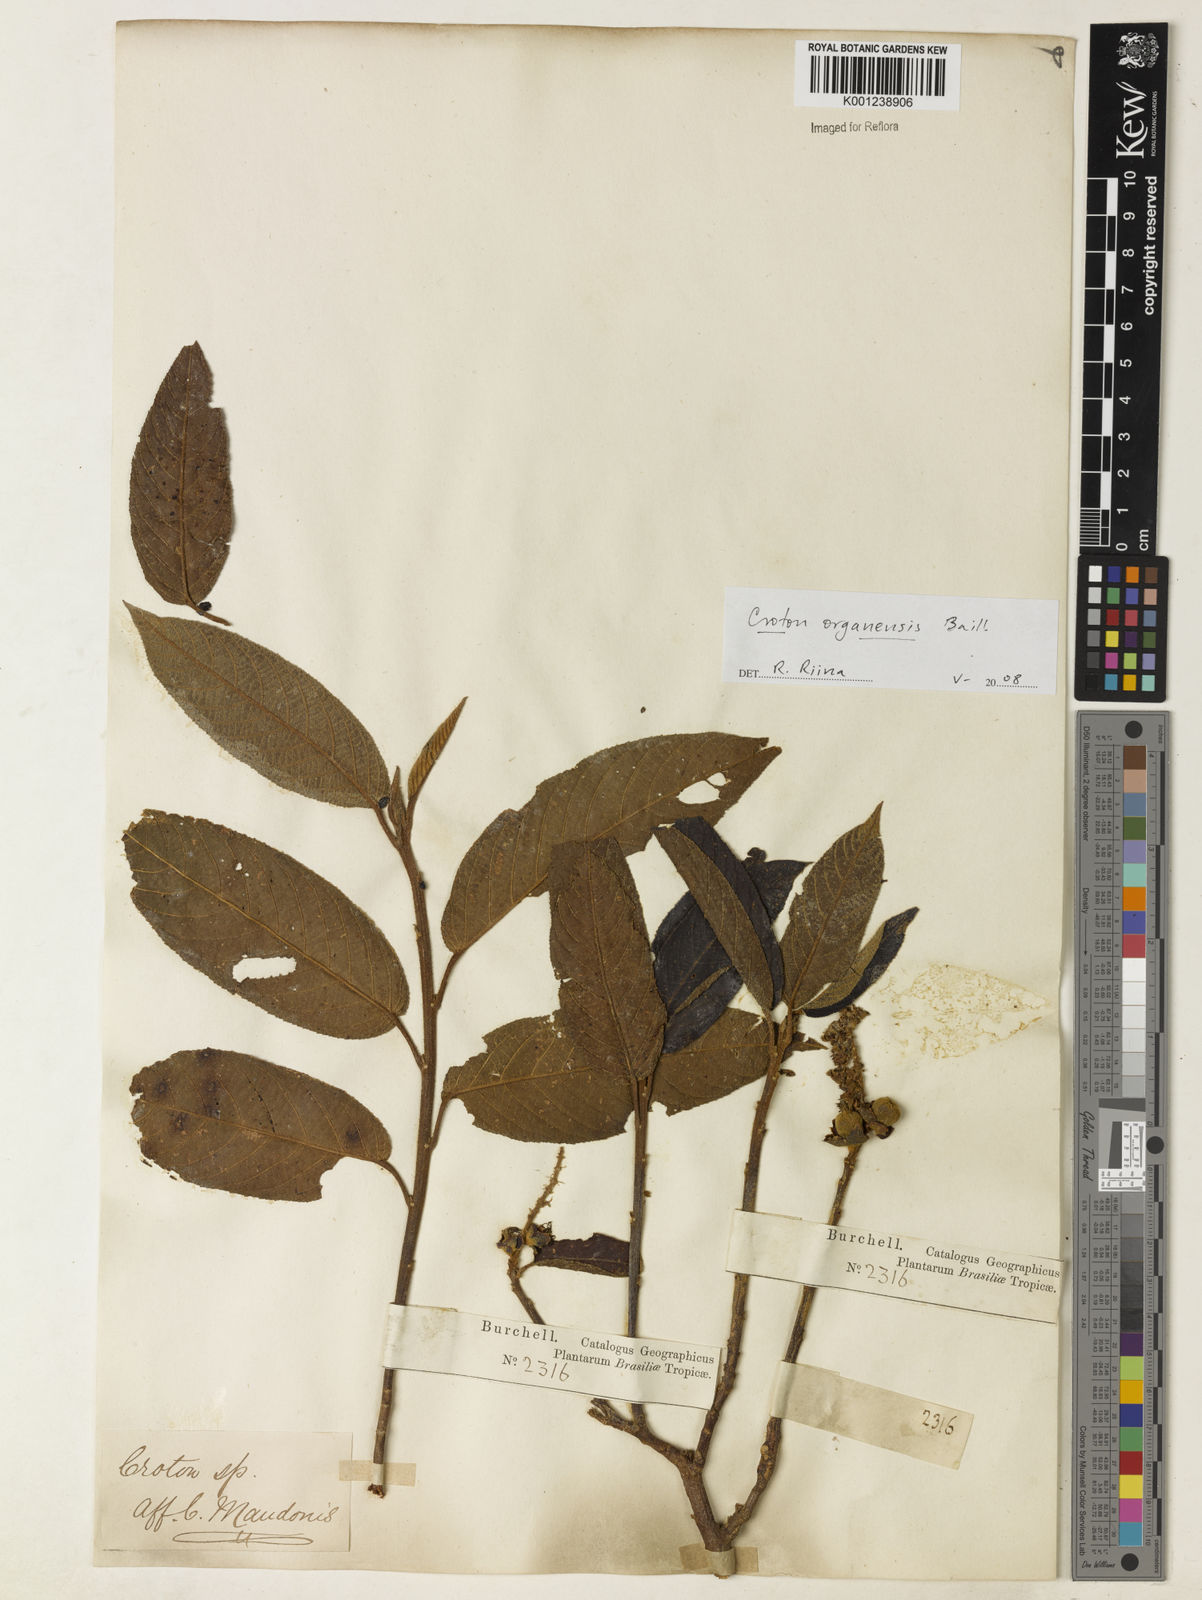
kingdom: Plantae
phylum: Tracheophyta
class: Magnoliopsida
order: Malpighiales
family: Euphorbiaceae
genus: Croton
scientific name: Croton organensis
